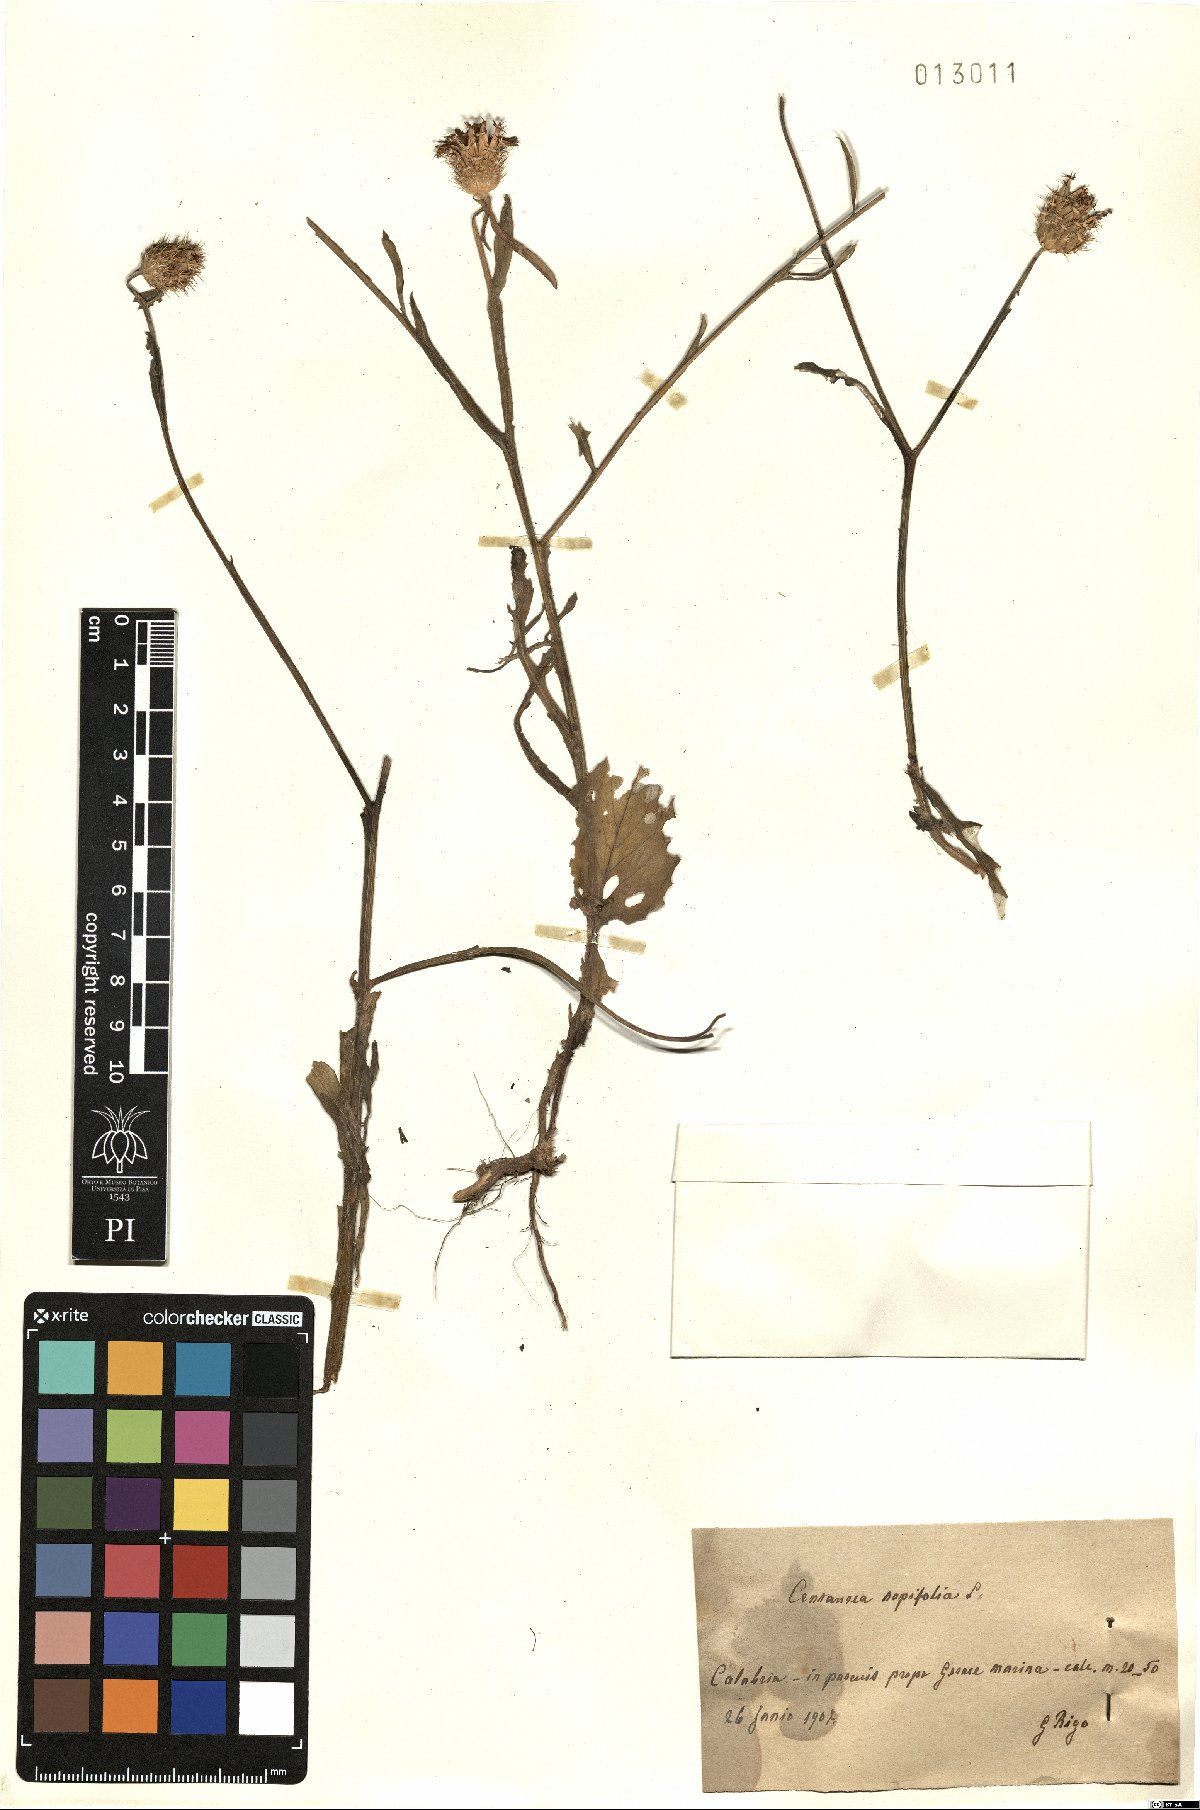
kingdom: Plantae
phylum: Tracheophyta
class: Magnoliopsida
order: Asterales
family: Asteraceae
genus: Centaurea
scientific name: Centaurea napifolia
